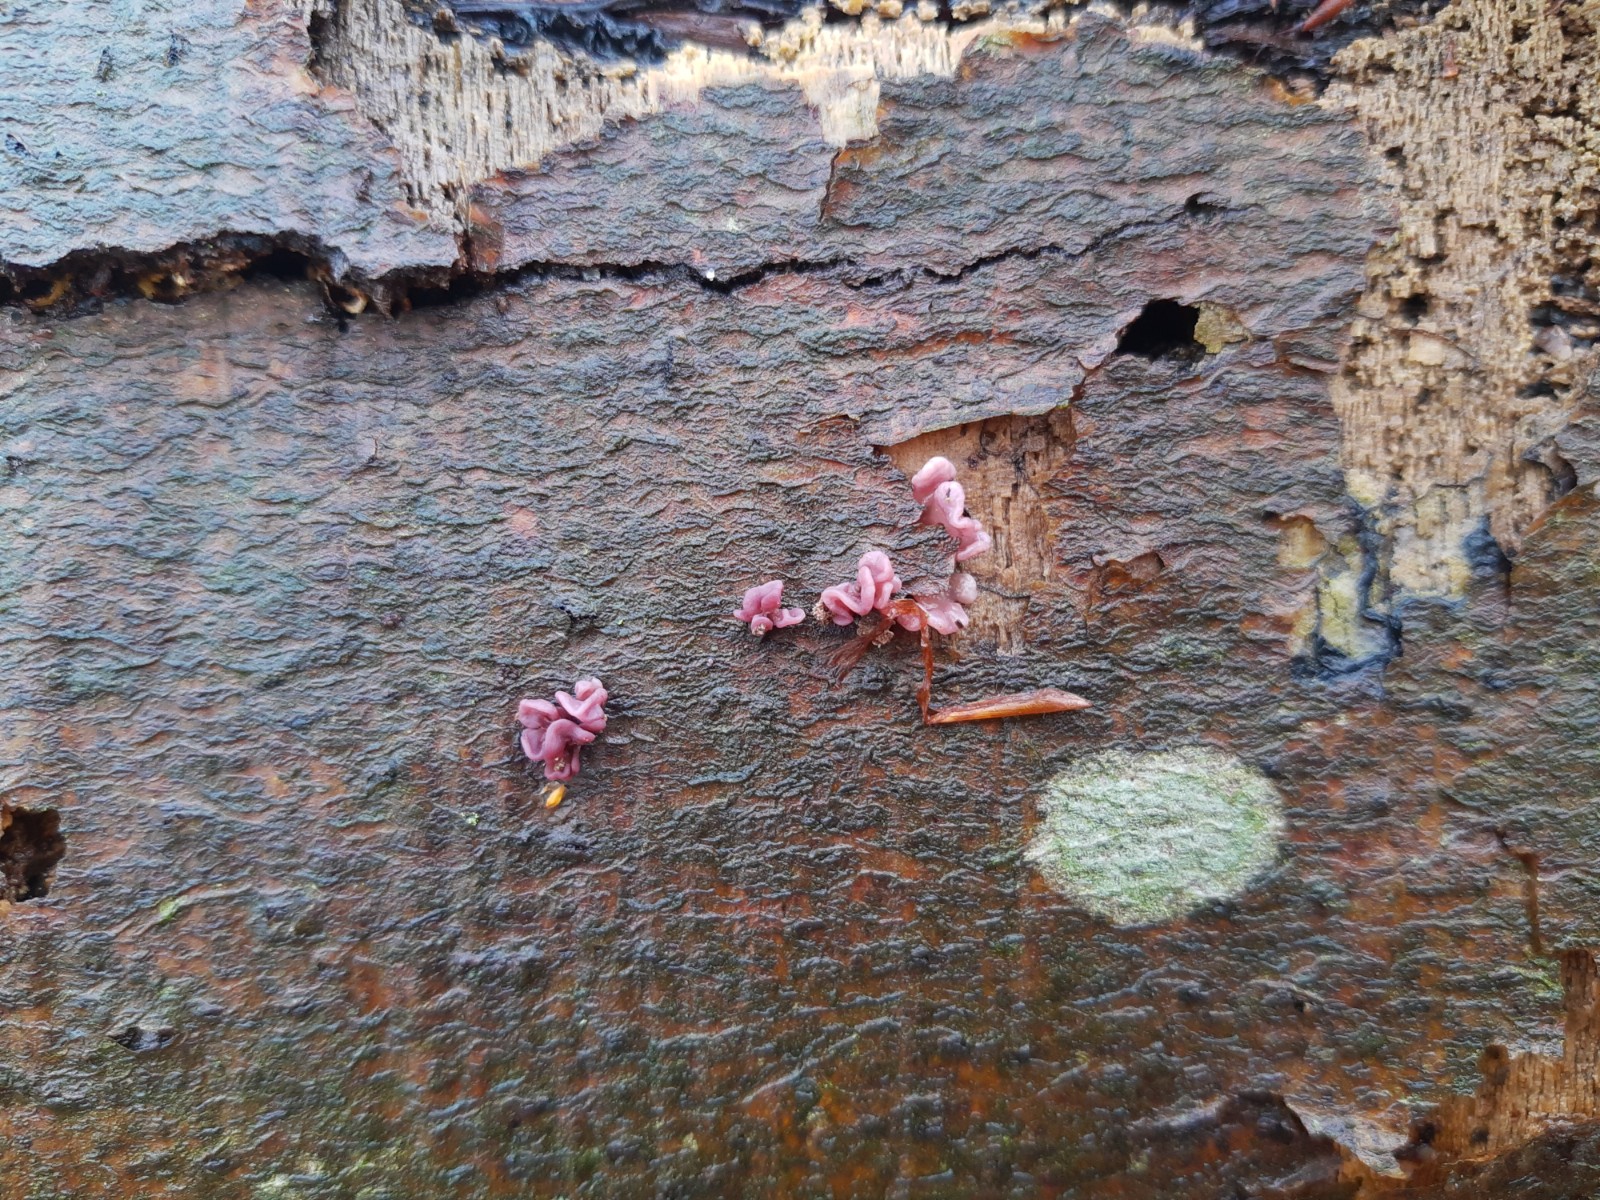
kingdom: Fungi
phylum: Ascomycota
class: Leotiomycetes
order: Helotiales
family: Gelatinodiscaceae
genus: Ascocoryne
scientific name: Ascocoryne sarcoides
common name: rødlilla sejskive
